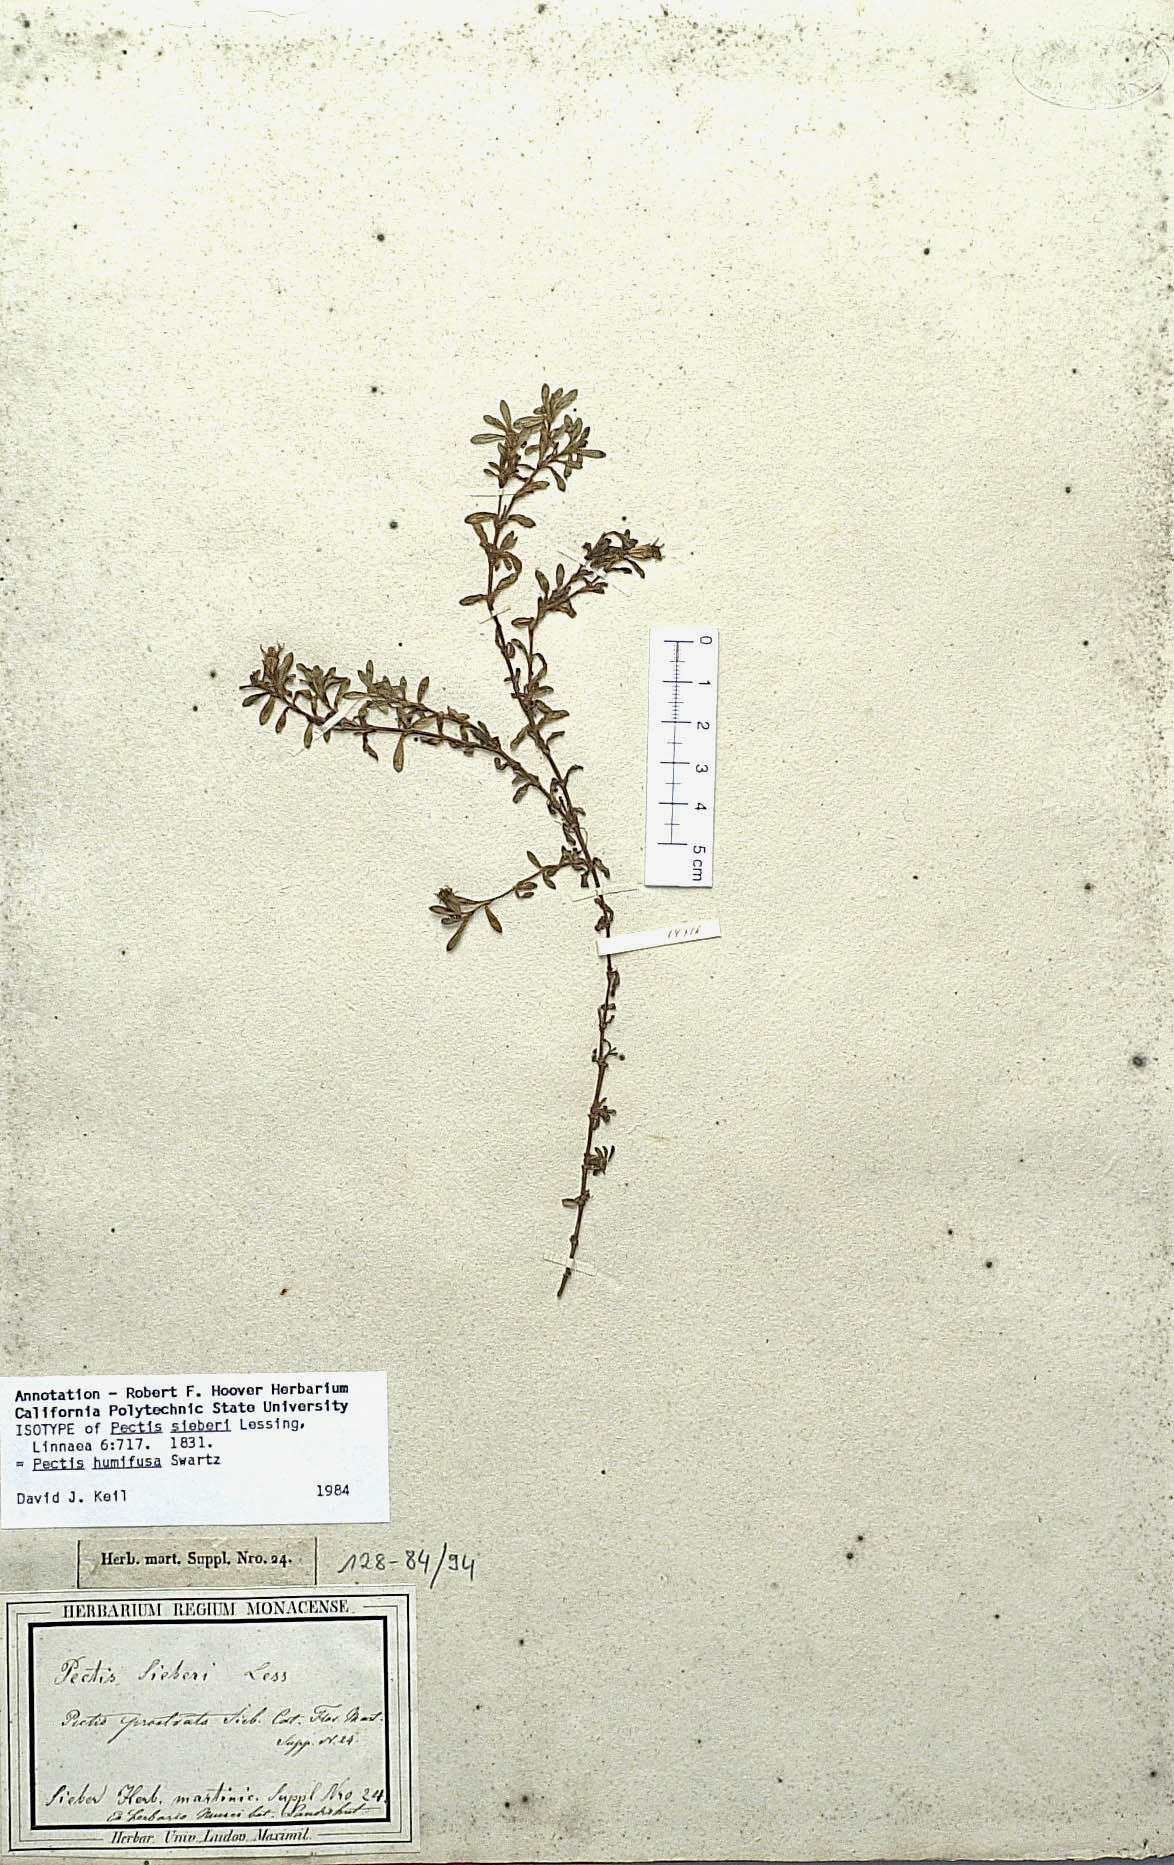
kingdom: Plantae
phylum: Tracheophyta
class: Magnoliopsida
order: Asterales
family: Asteraceae
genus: Pectis
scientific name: Pectis humifusa
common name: Yerba de san juan
